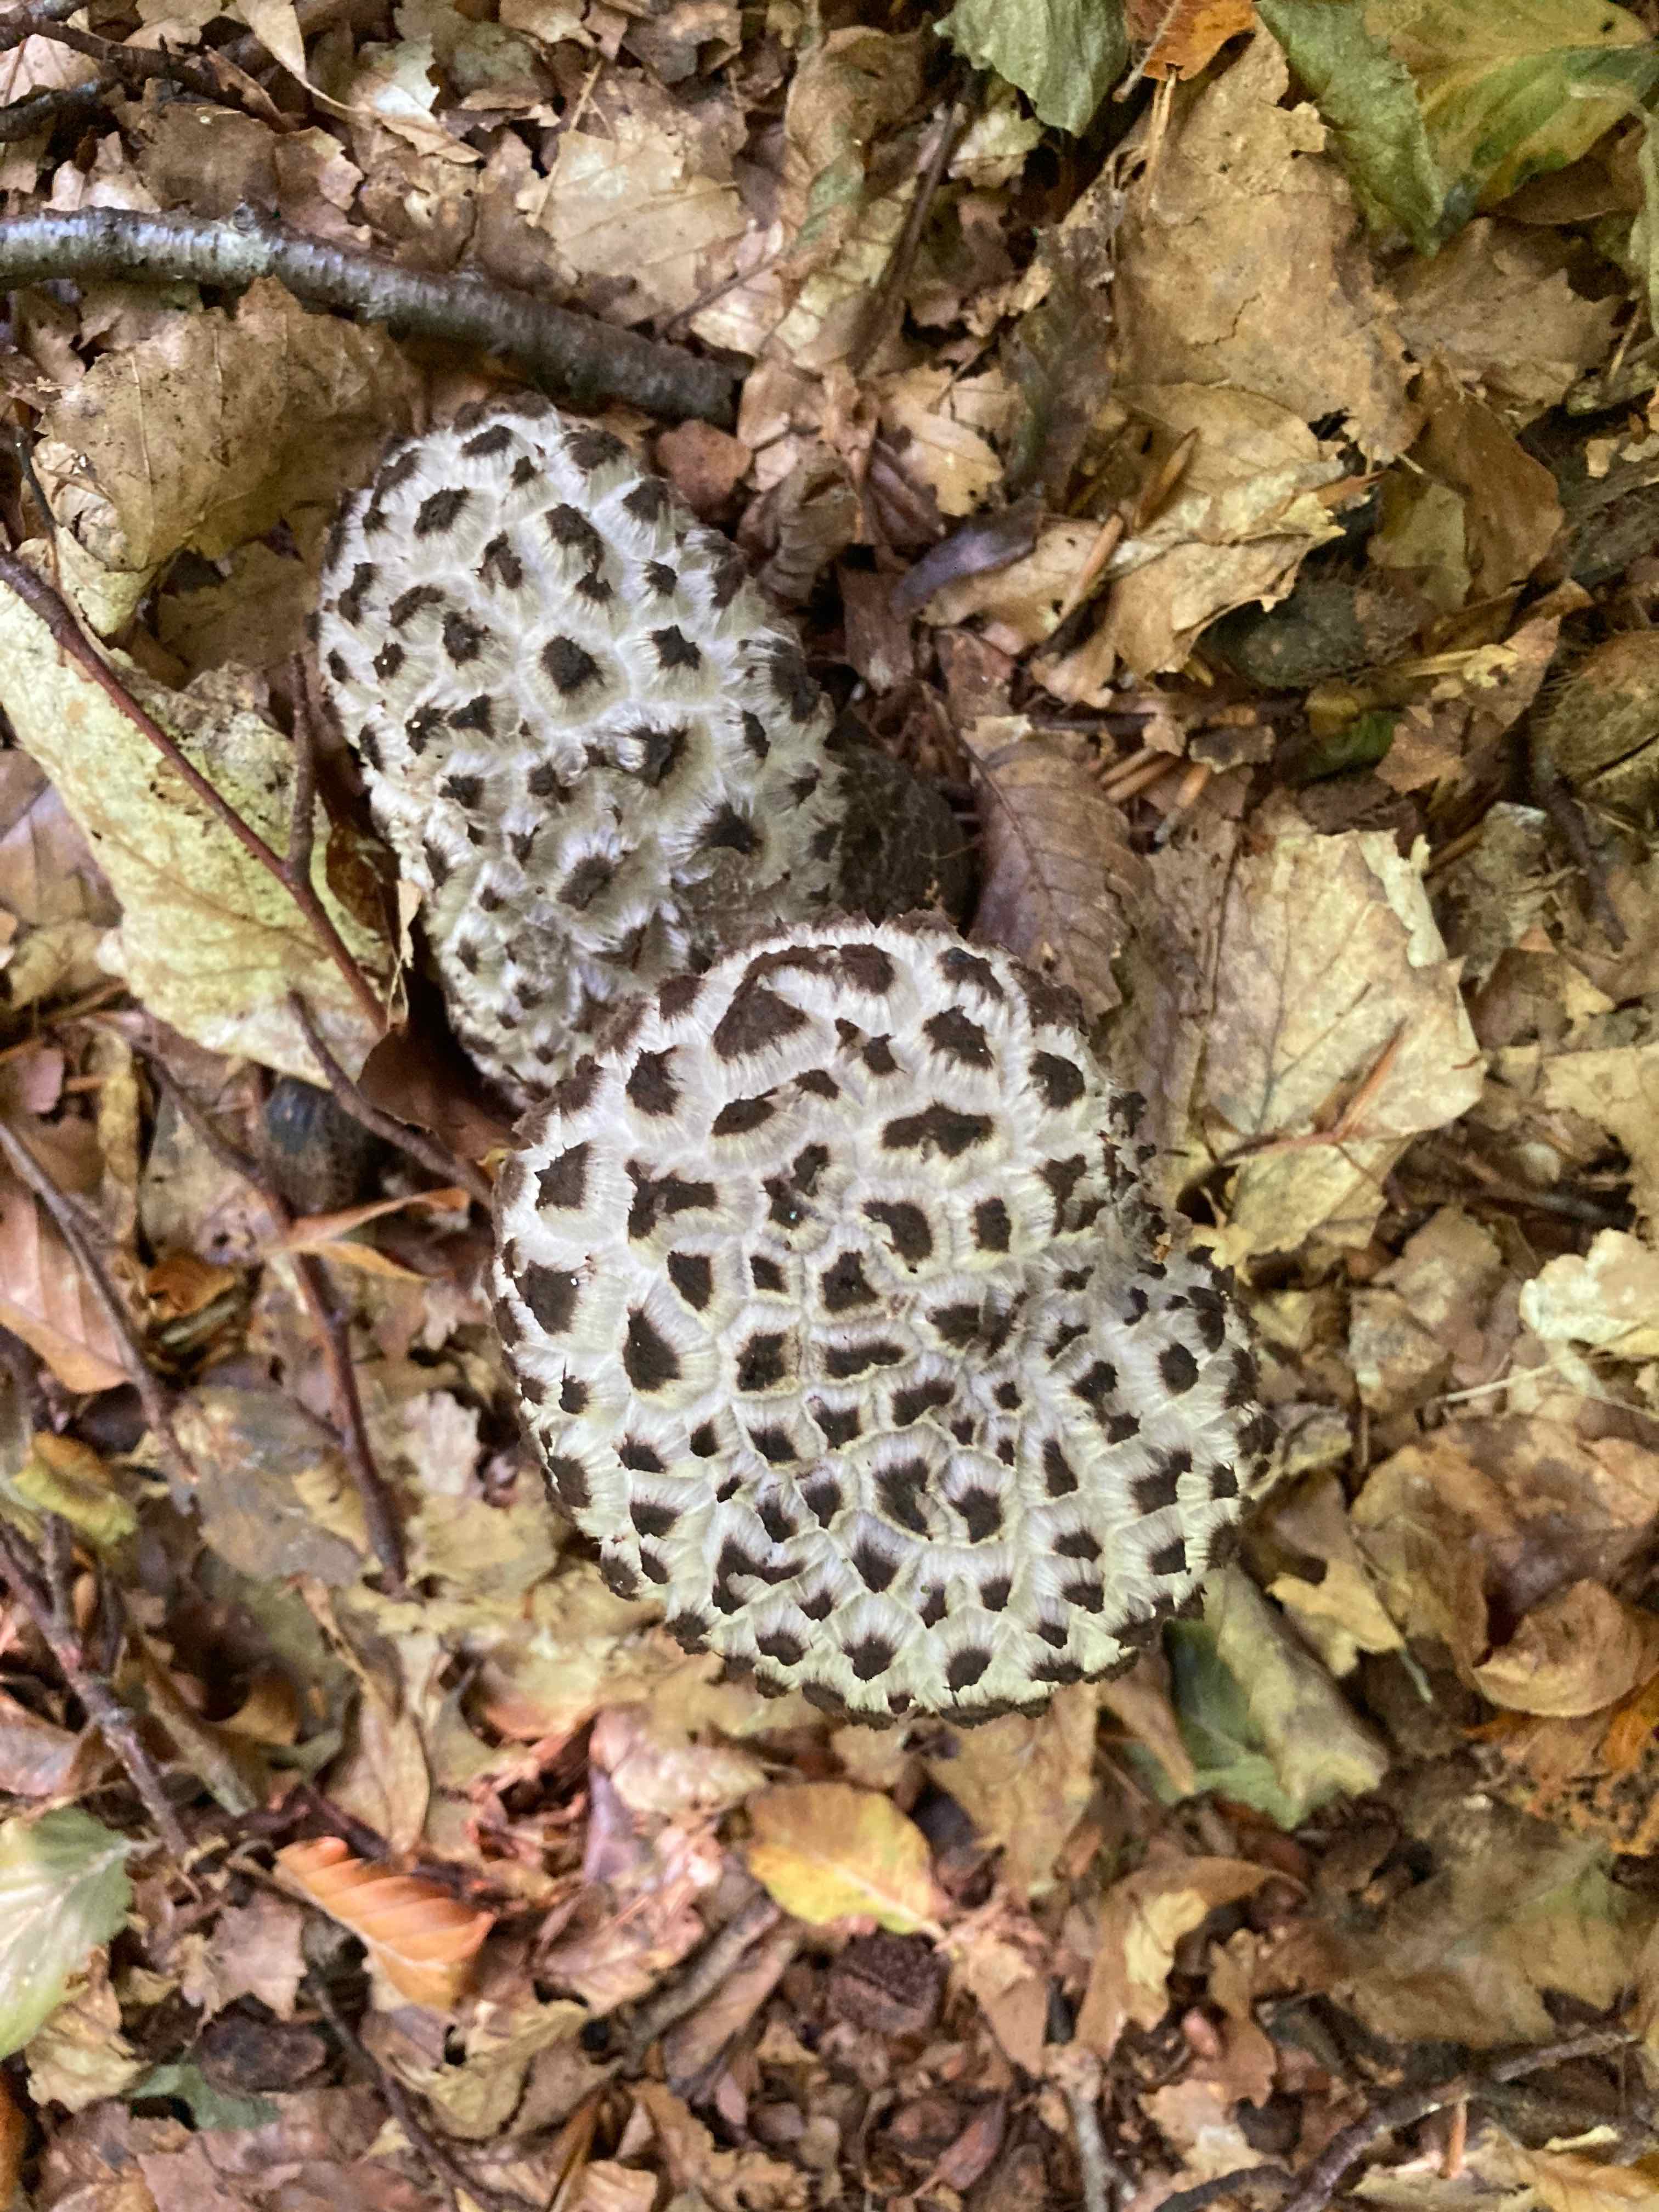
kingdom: Fungi
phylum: Basidiomycota
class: Agaricomycetes
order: Boletales
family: Boletaceae
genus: Strobilomyces
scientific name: Strobilomyces strobilaceus
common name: koglerørhat
